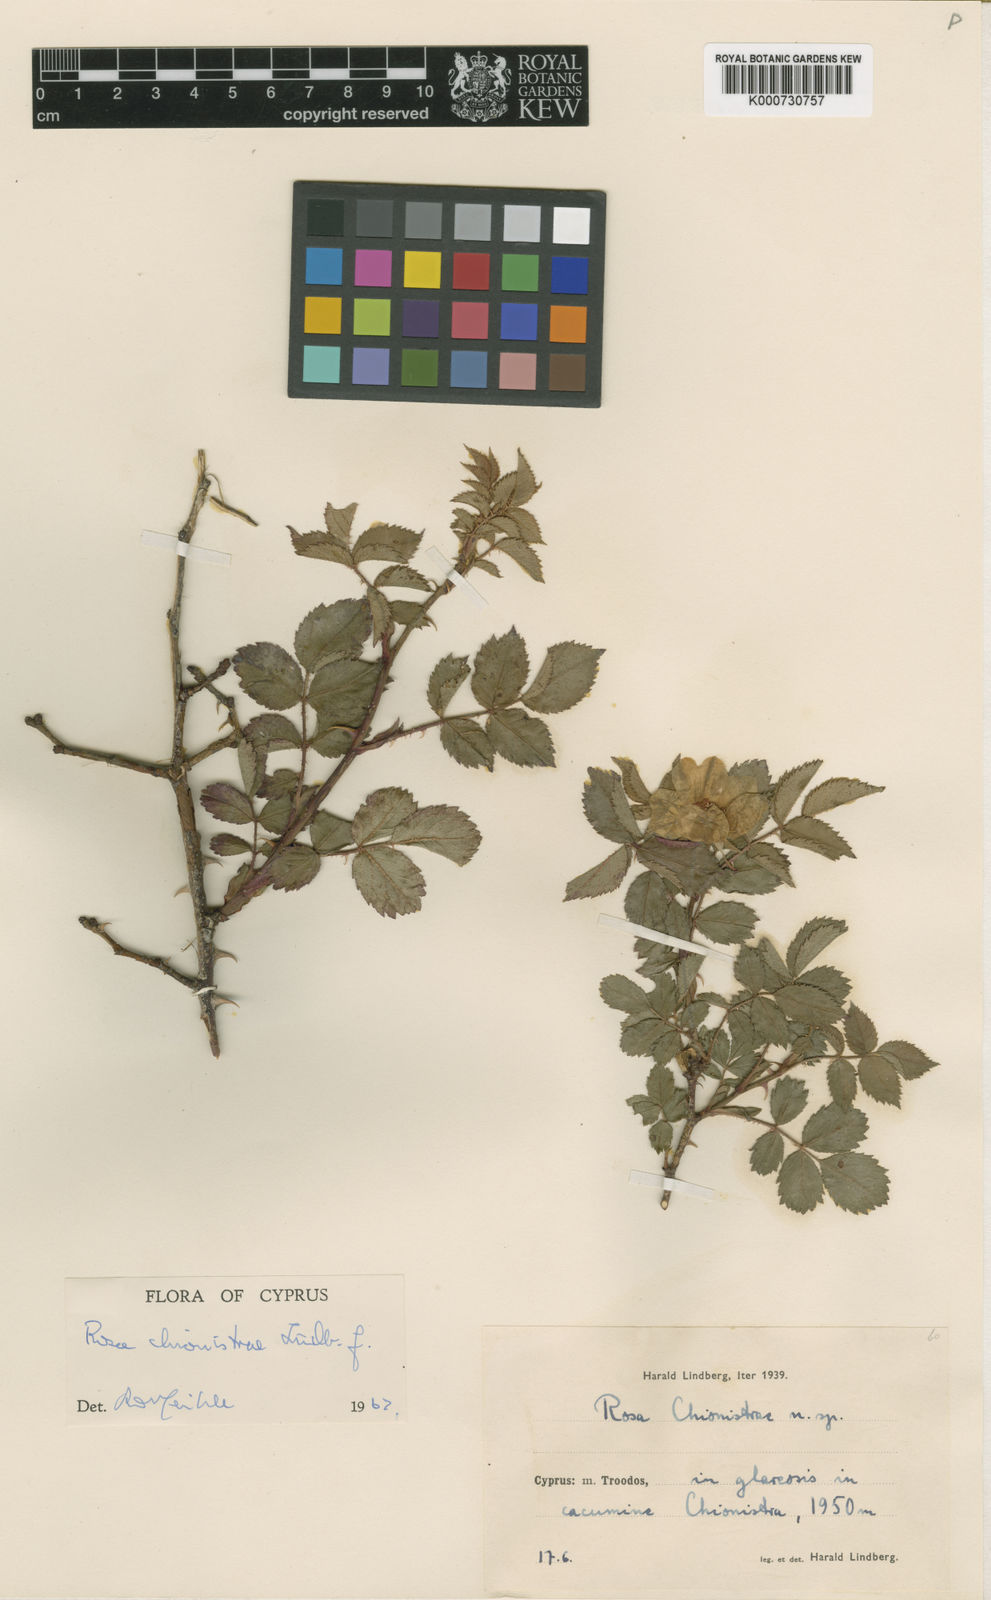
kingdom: Plantae
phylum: Tracheophyta
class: Magnoliopsida
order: Rosales
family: Rosaceae
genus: Rosa
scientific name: Rosa micrantha
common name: Small-flowered sweet-briar
